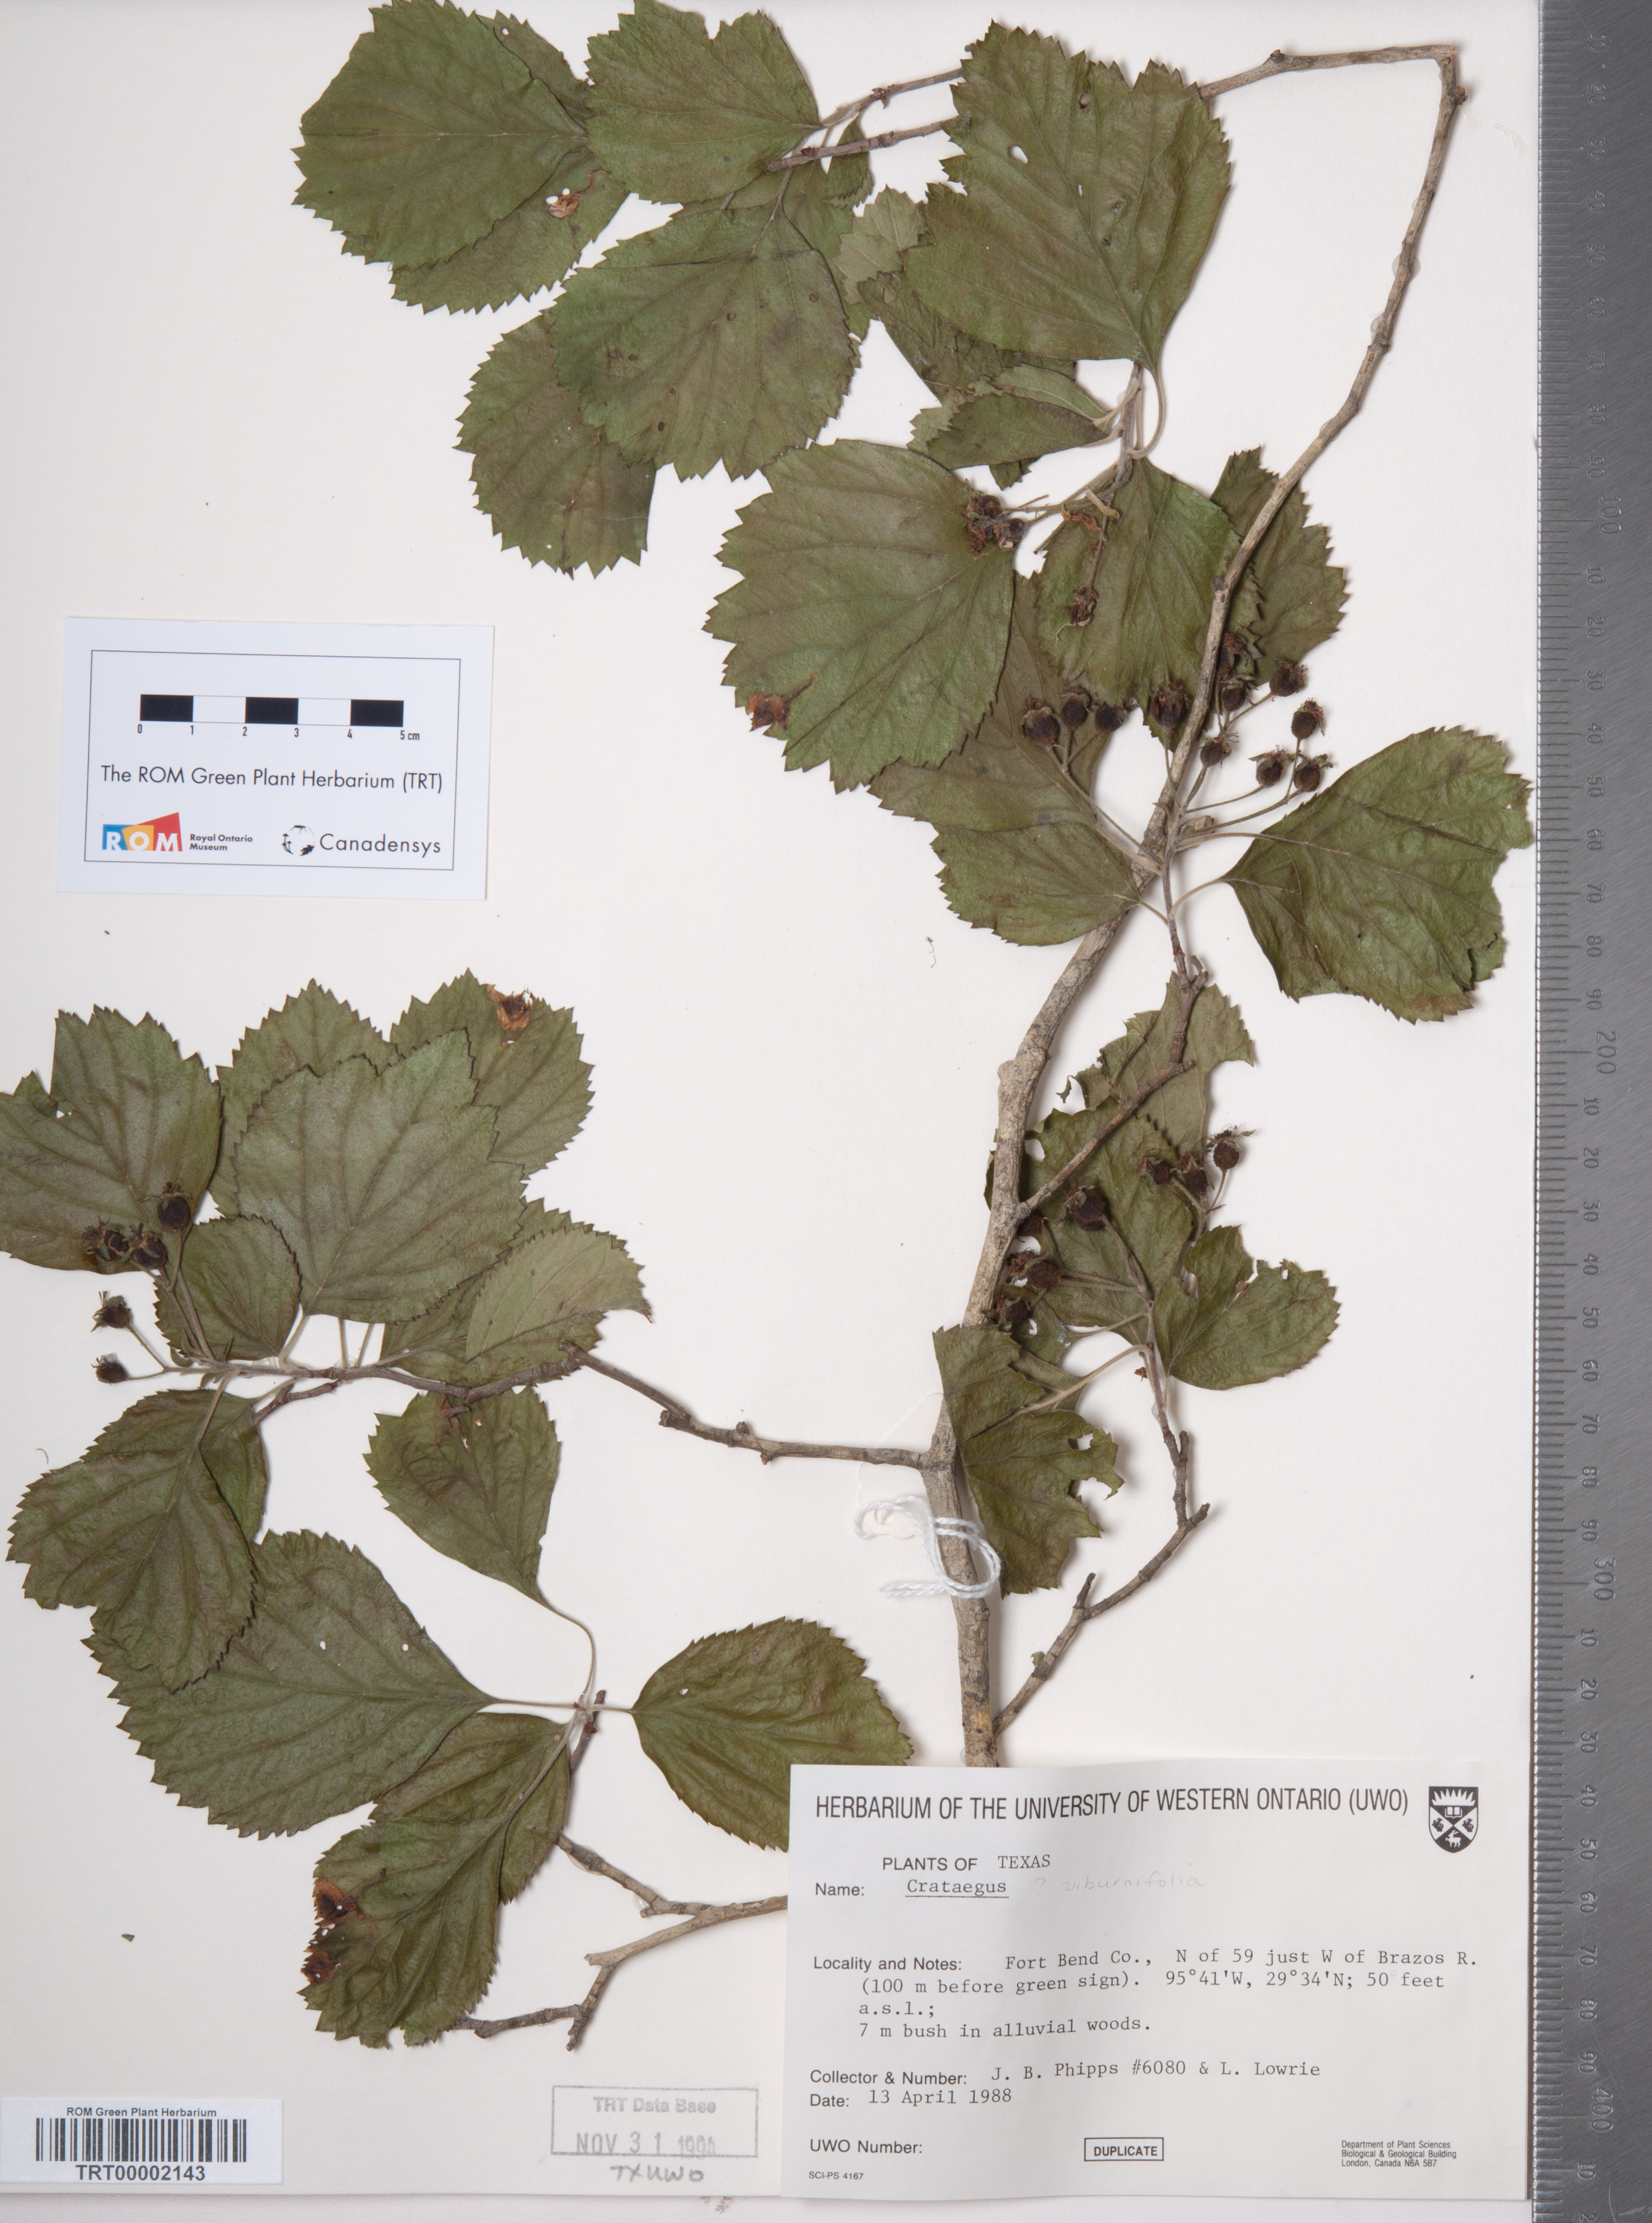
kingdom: Plantae
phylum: Tracheophyta
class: Magnoliopsida
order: Rosales
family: Rosaceae
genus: Crataegus
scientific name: Crataegus mollis
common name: Downy hawthorn
